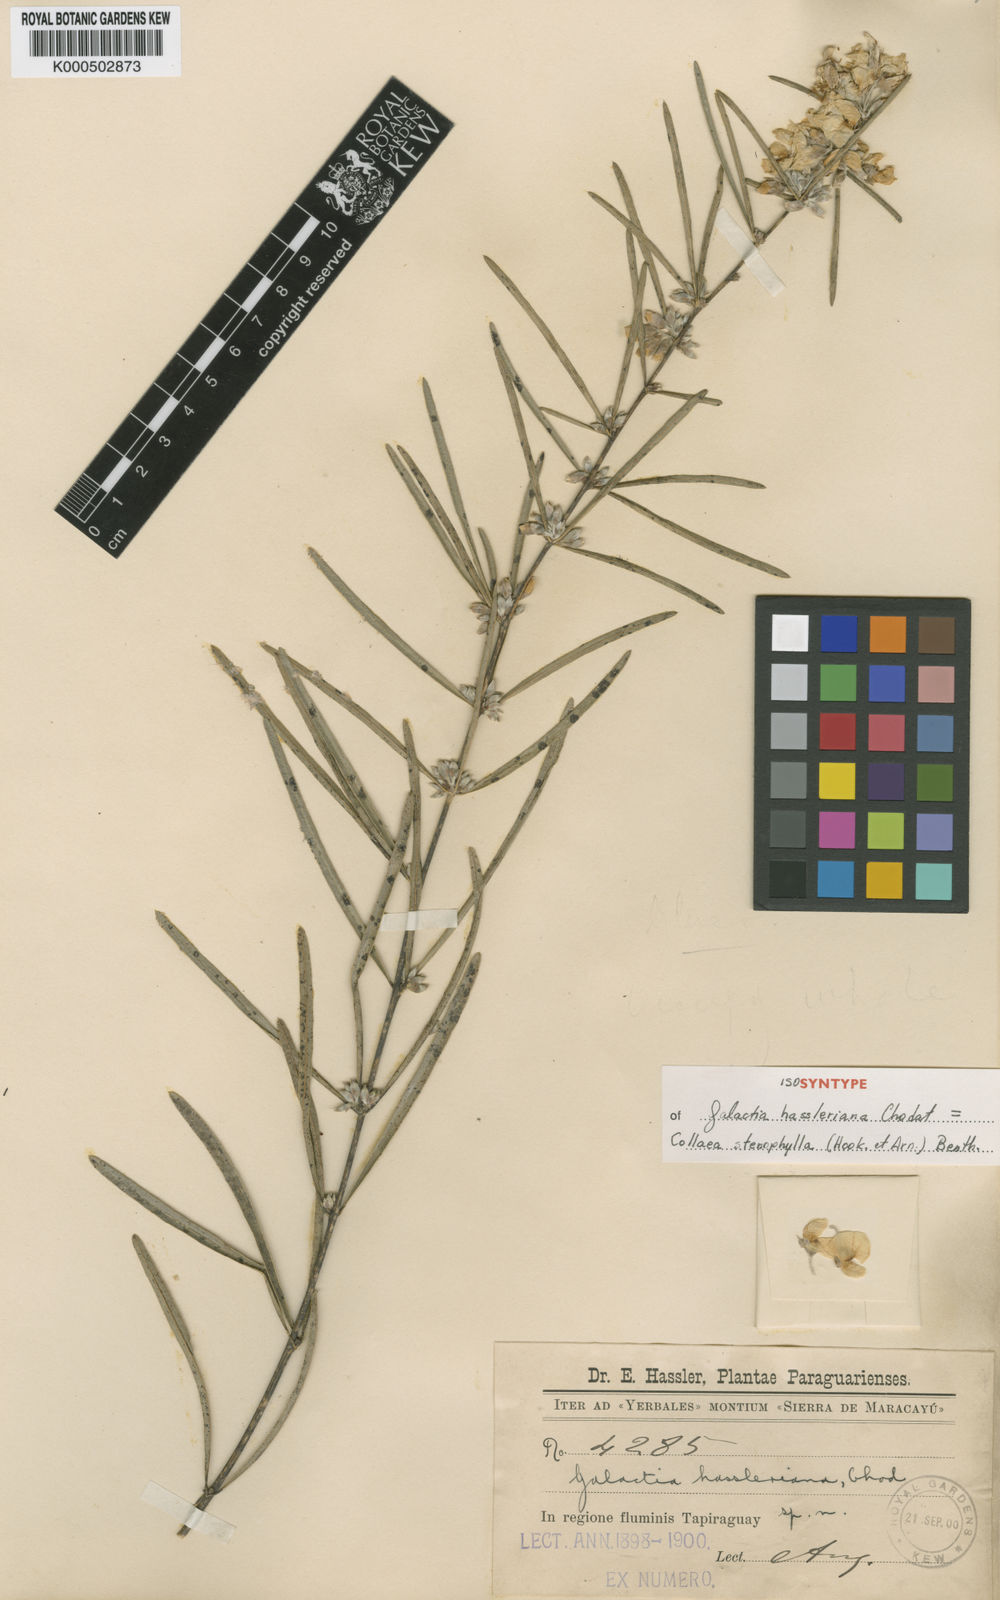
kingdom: Plantae
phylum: Tracheophyta
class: Magnoliopsida
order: Fabales
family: Fabaceae
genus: Collaea
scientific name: Collaea stenophylla
